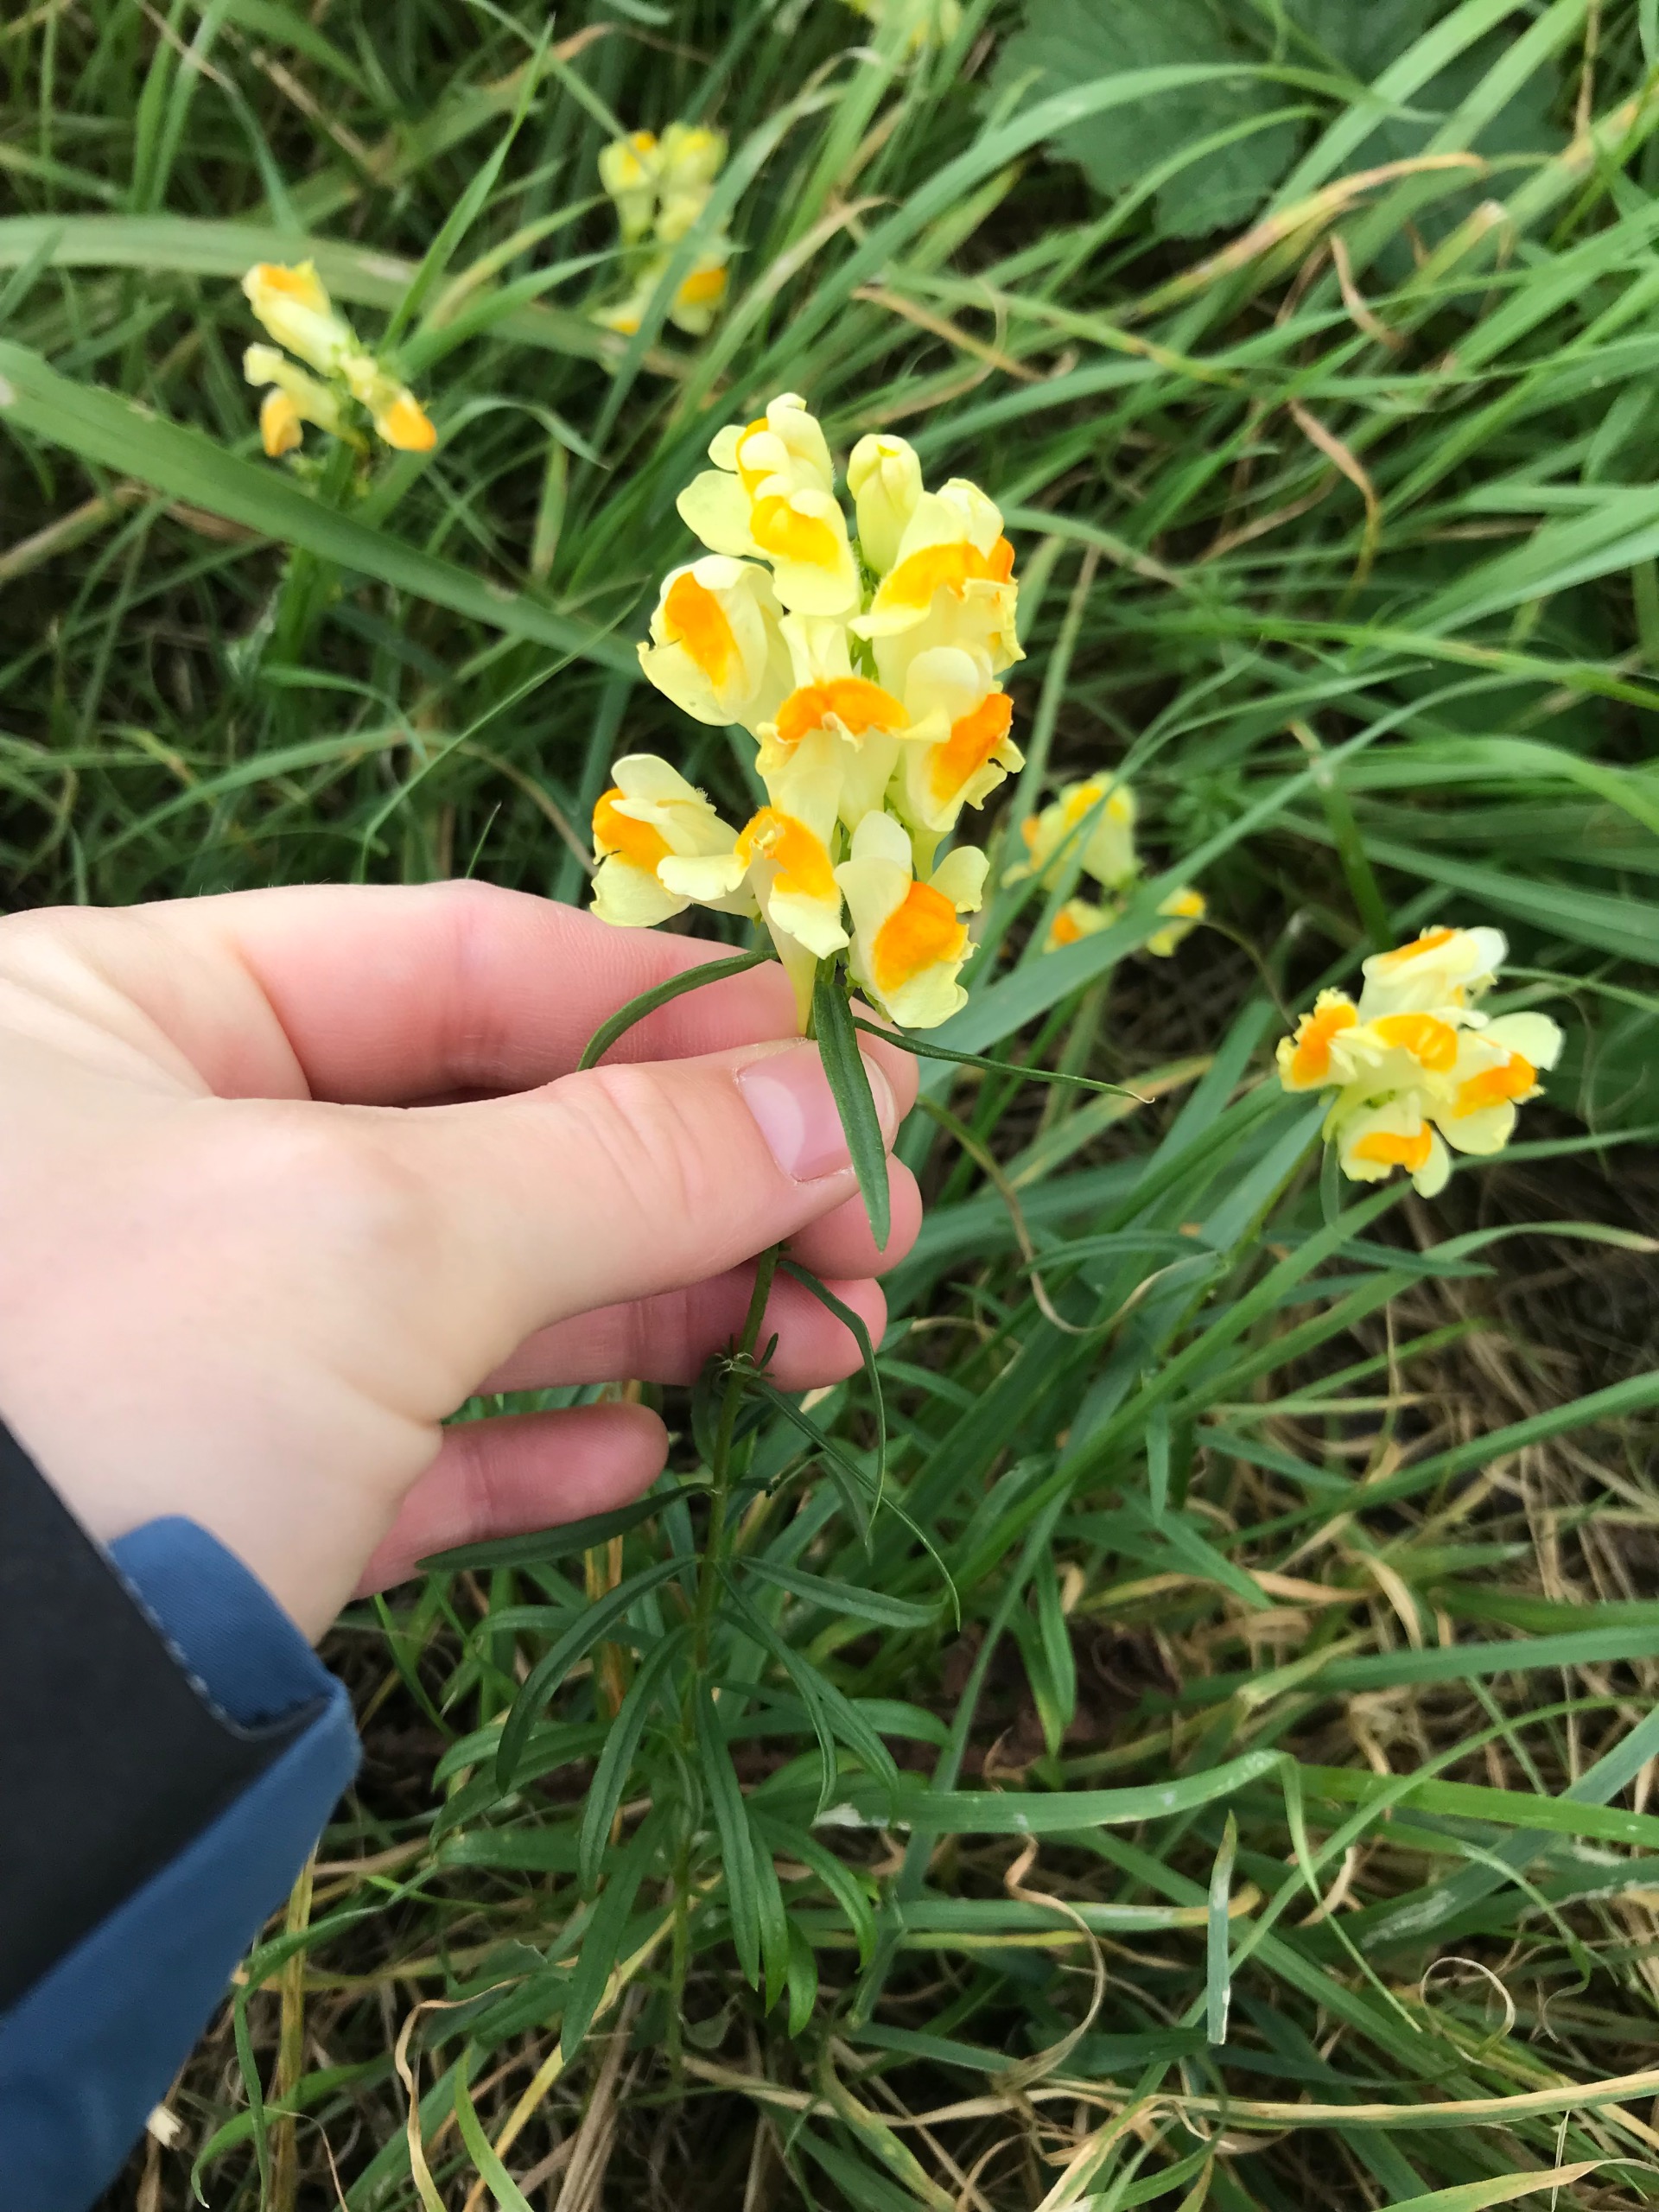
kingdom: Plantae
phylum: Tracheophyta
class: Magnoliopsida
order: Lamiales
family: Plantaginaceae
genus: Linaria
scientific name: Linaria vulgaris
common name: Almindelig torskemund
